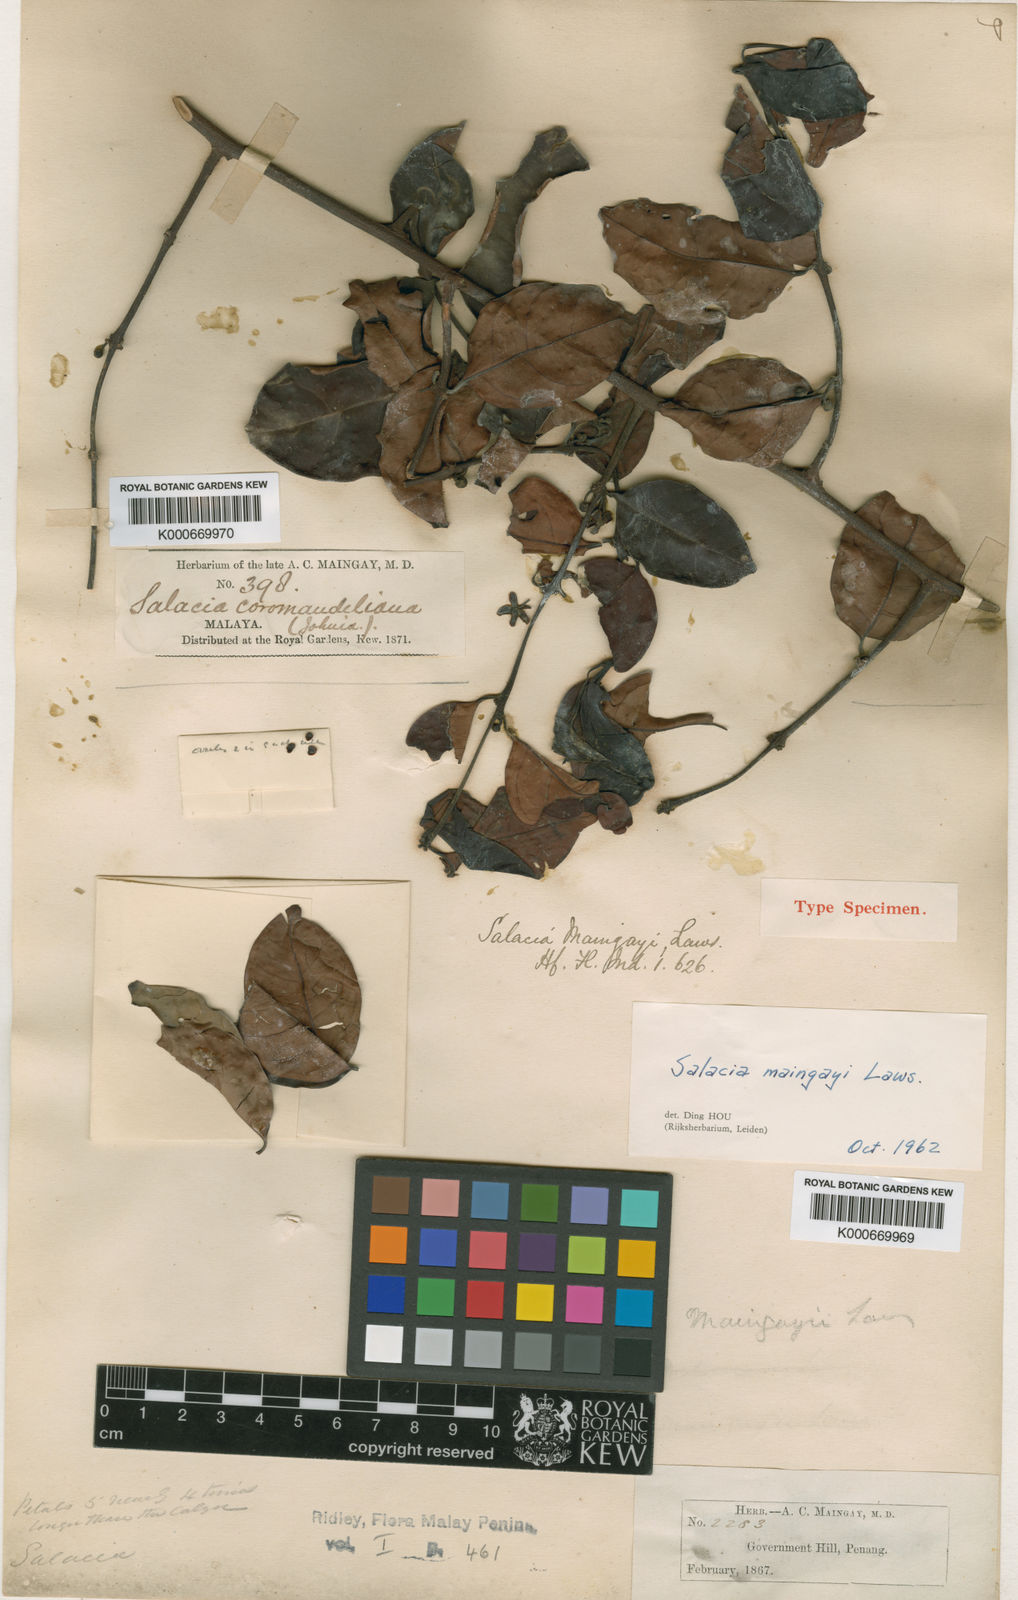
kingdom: Plantae
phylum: Tracheophyta
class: Magnoliopsida
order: Celastrales
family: Celastraceae
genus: Salacia
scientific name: Salacia maingayi
